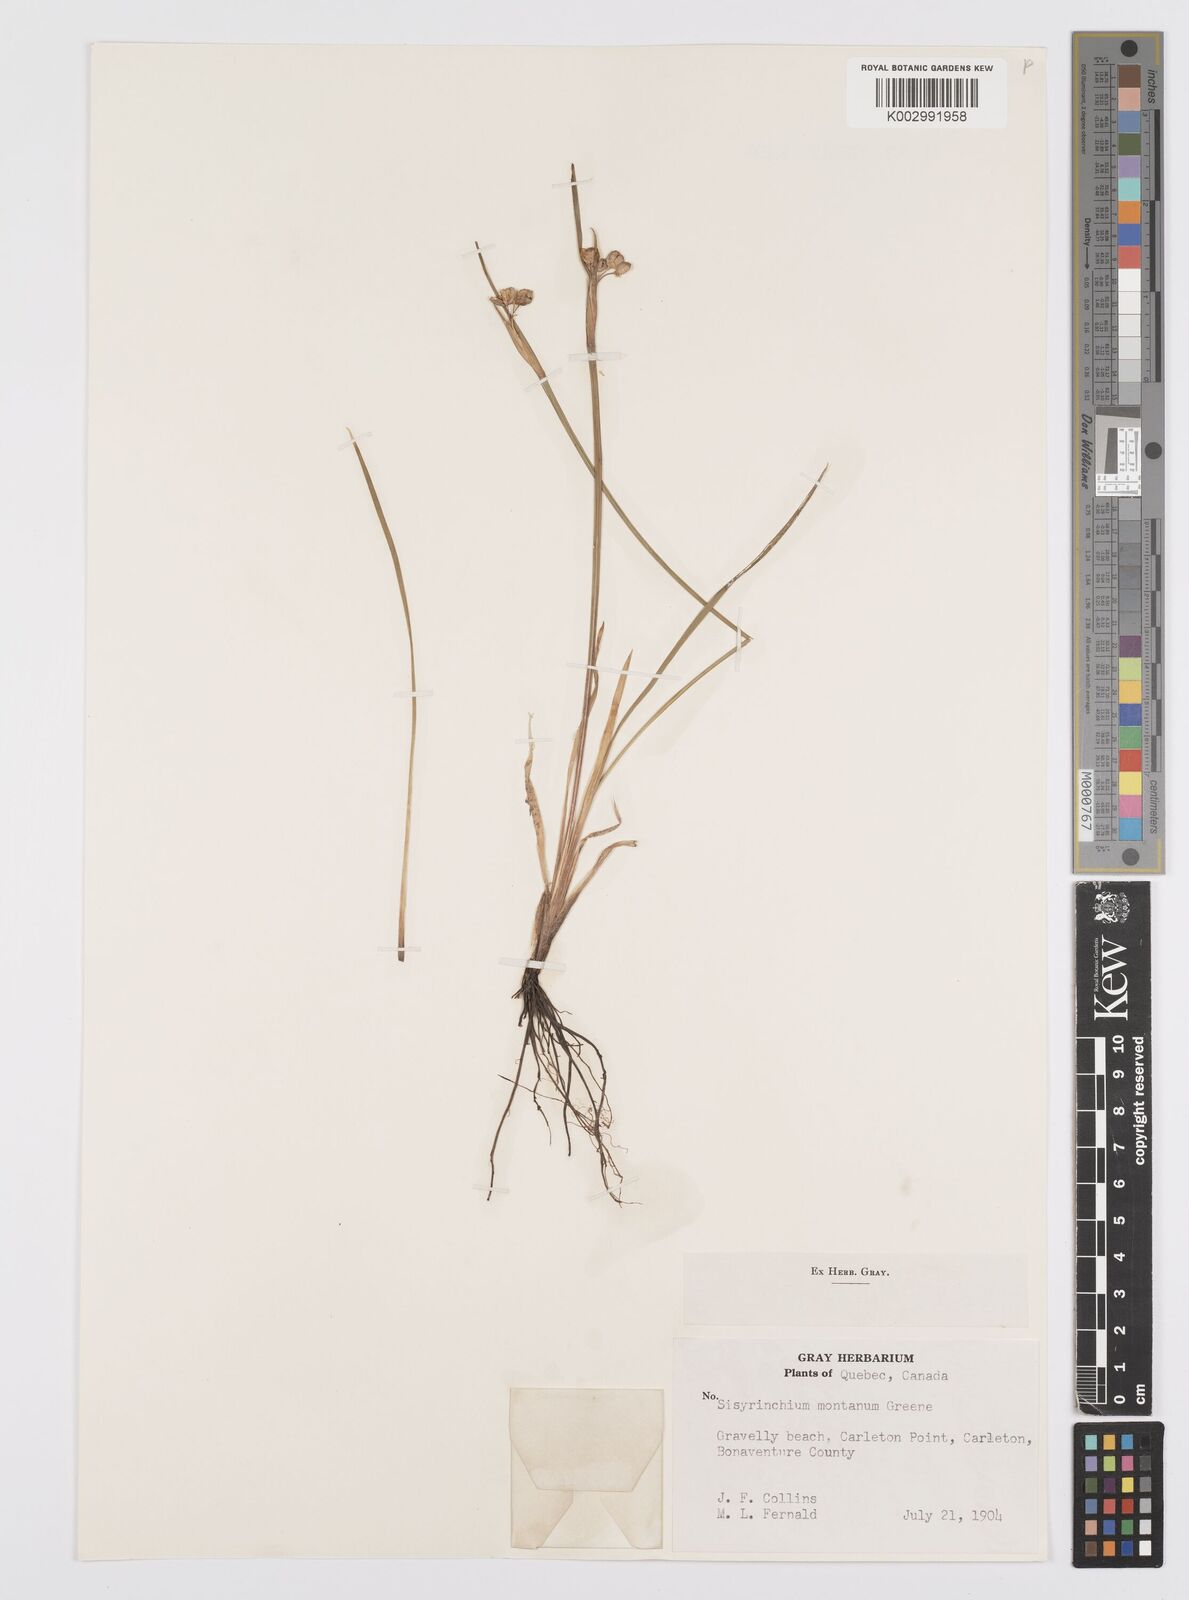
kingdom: Plantae
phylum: Tracheophyta
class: Liliopsida
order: Asparagales
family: Iridaceae
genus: Sisyrinchium
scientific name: Sisyrinchium montanum
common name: American blue-eyed-grass
